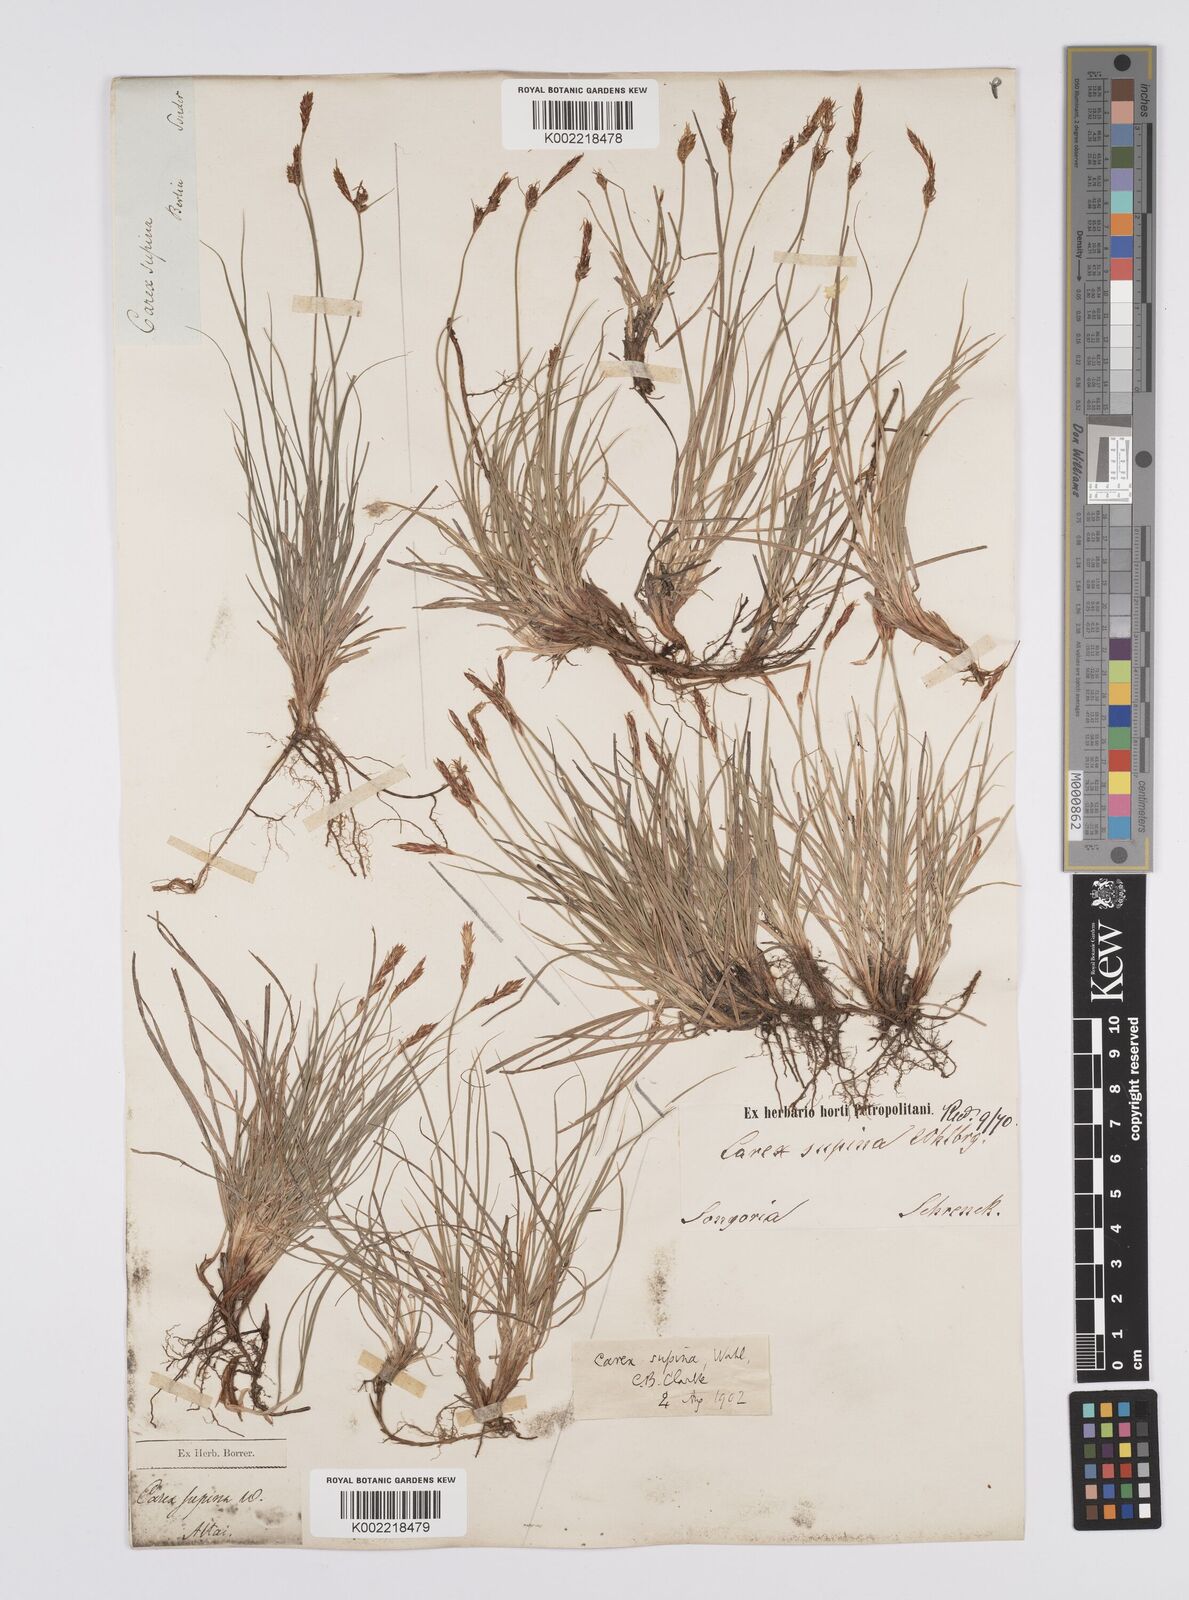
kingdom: Plantae
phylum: Tracheophyta
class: Liliopsida
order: Poales
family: Cyperaceae
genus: Carex
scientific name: Carex supina
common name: Lying-back sedge
